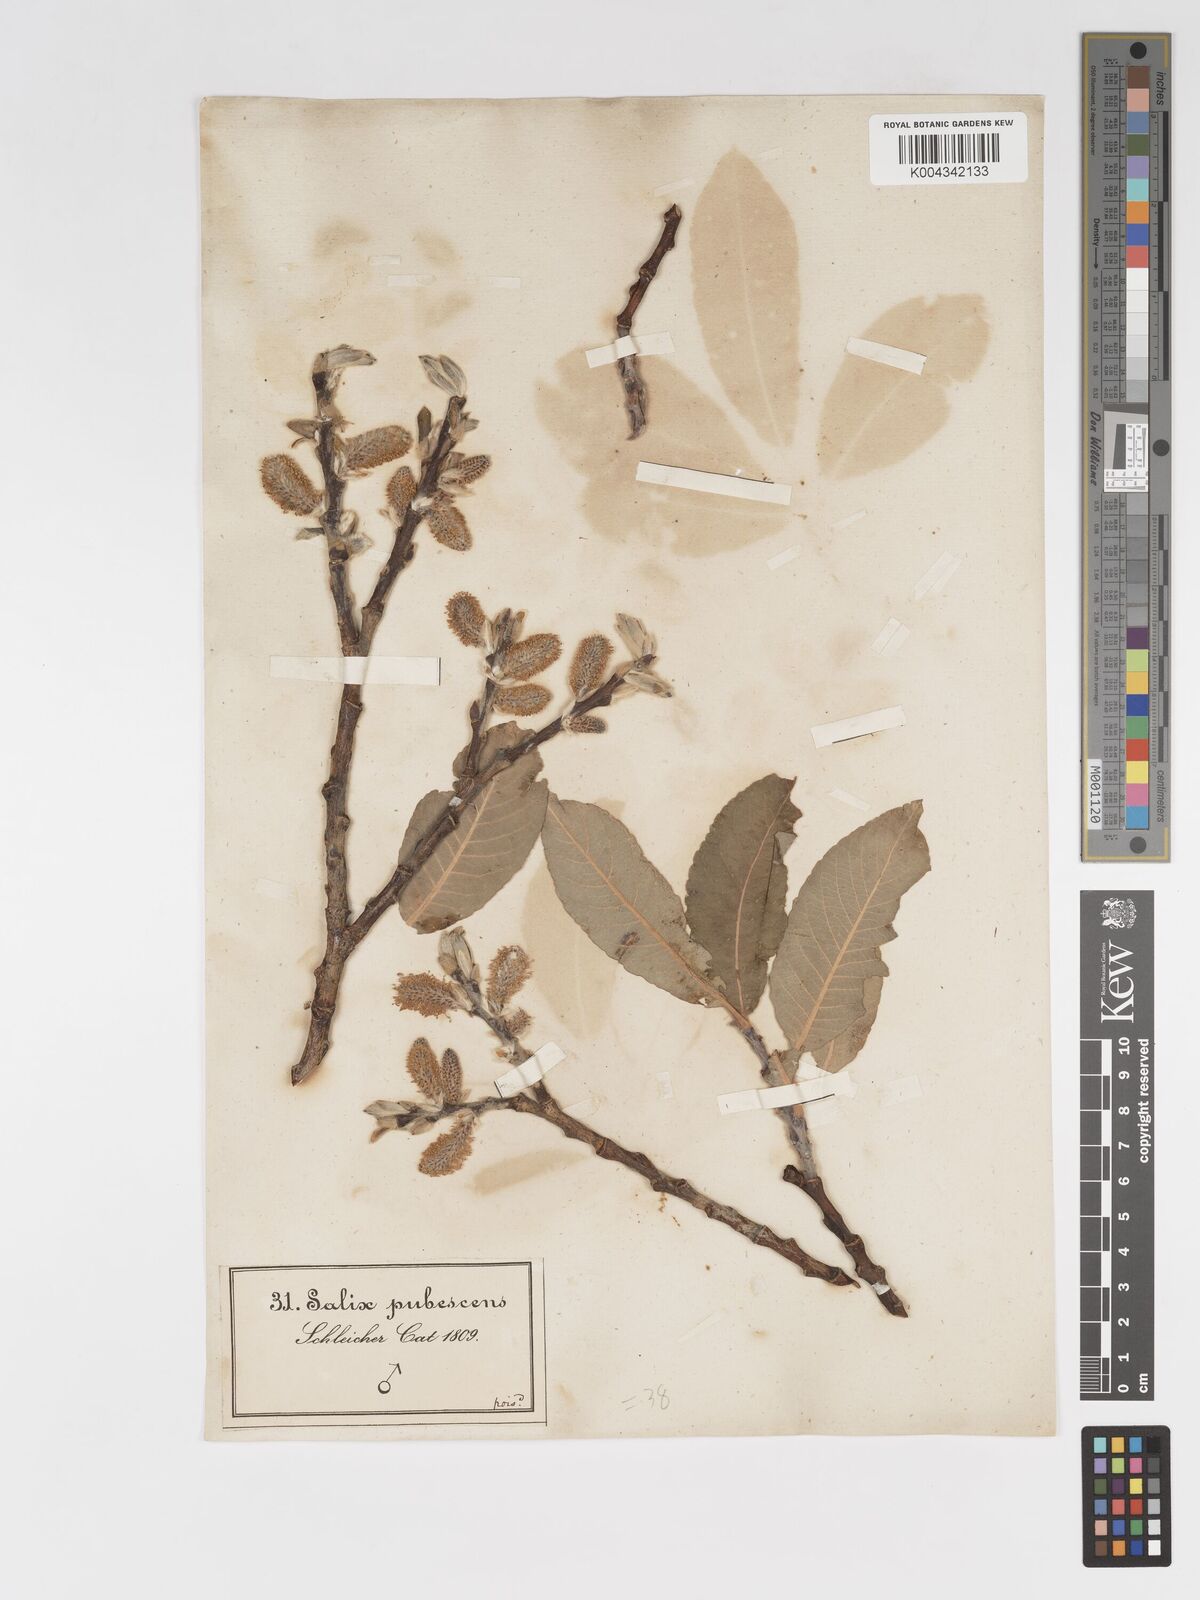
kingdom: Plantae
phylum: Tracheophyta
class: Magnoliopsida
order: Malpighiales
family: Salicaceae
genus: Salix
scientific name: Salix laggeri
